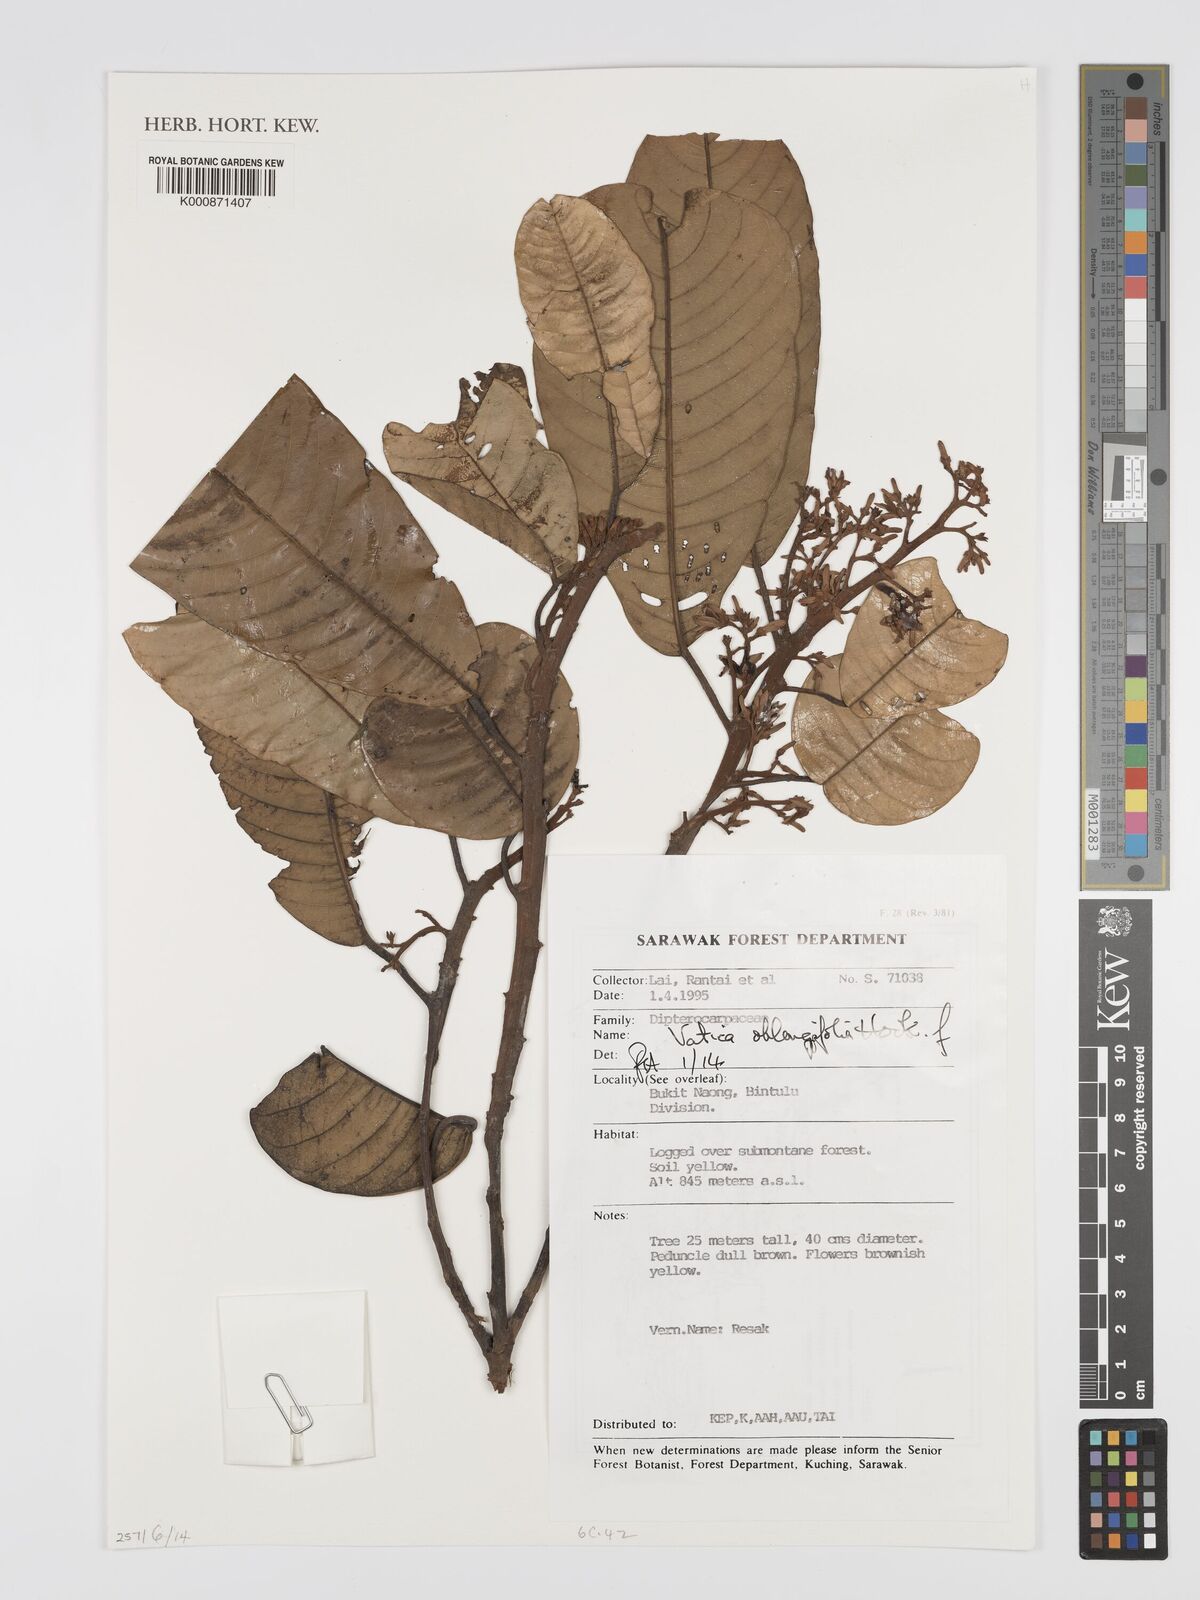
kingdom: Plantae
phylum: Tracheophyta
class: Magnoliopsida
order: Malvales
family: Dipterocarpaceae
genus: Vatica
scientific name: Vatica oblongifolia
